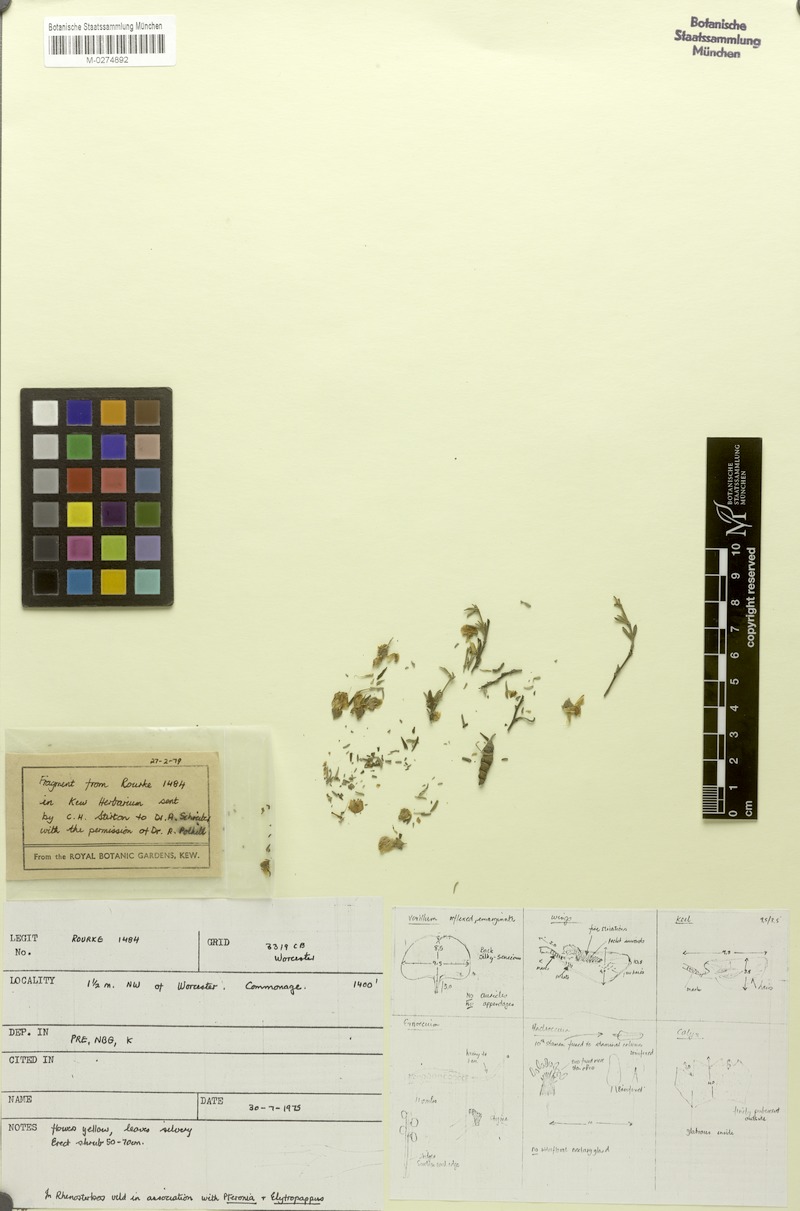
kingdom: Plantae
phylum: Tracheophyta
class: Magnoliopsida
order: Fabales
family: Fabaceae
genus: Polhillia
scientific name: Polhillia obsoleta
